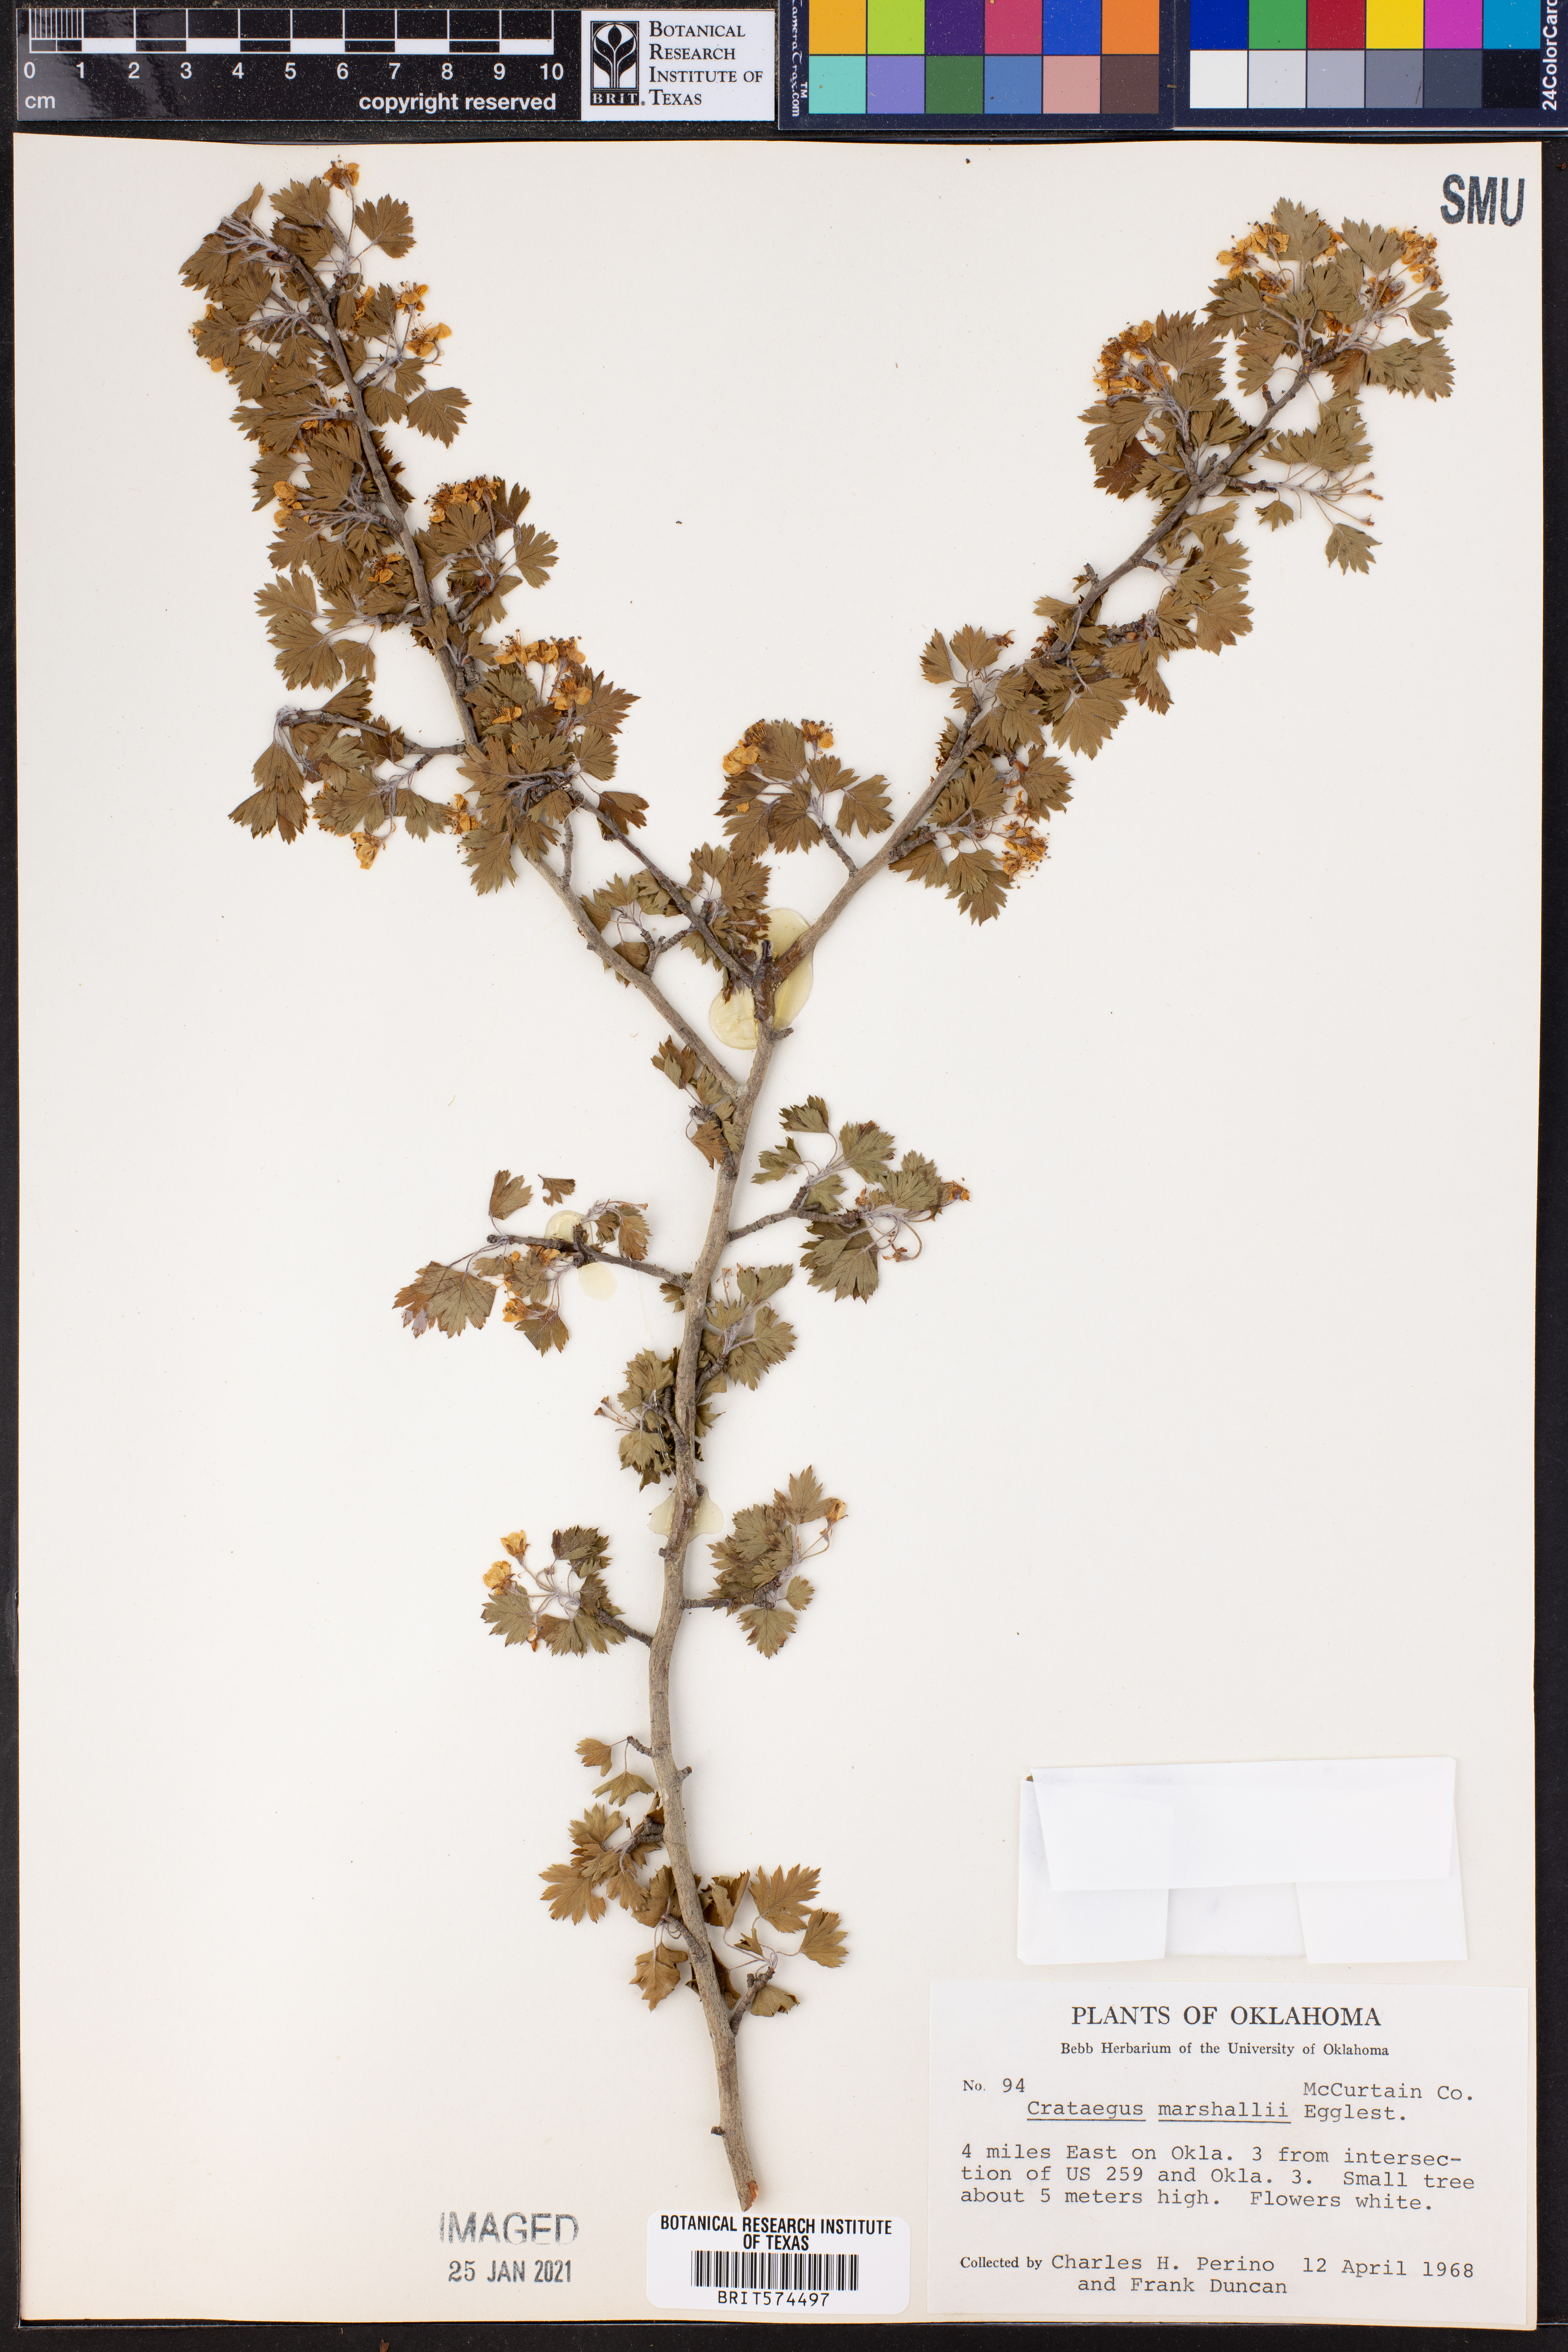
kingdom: Plantae
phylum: Tracheophyta
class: Magnoliopsida
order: Rosales
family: Rosaceae
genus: Crataegus
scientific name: Crataegus marshallii
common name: Parsley-hawthorn
